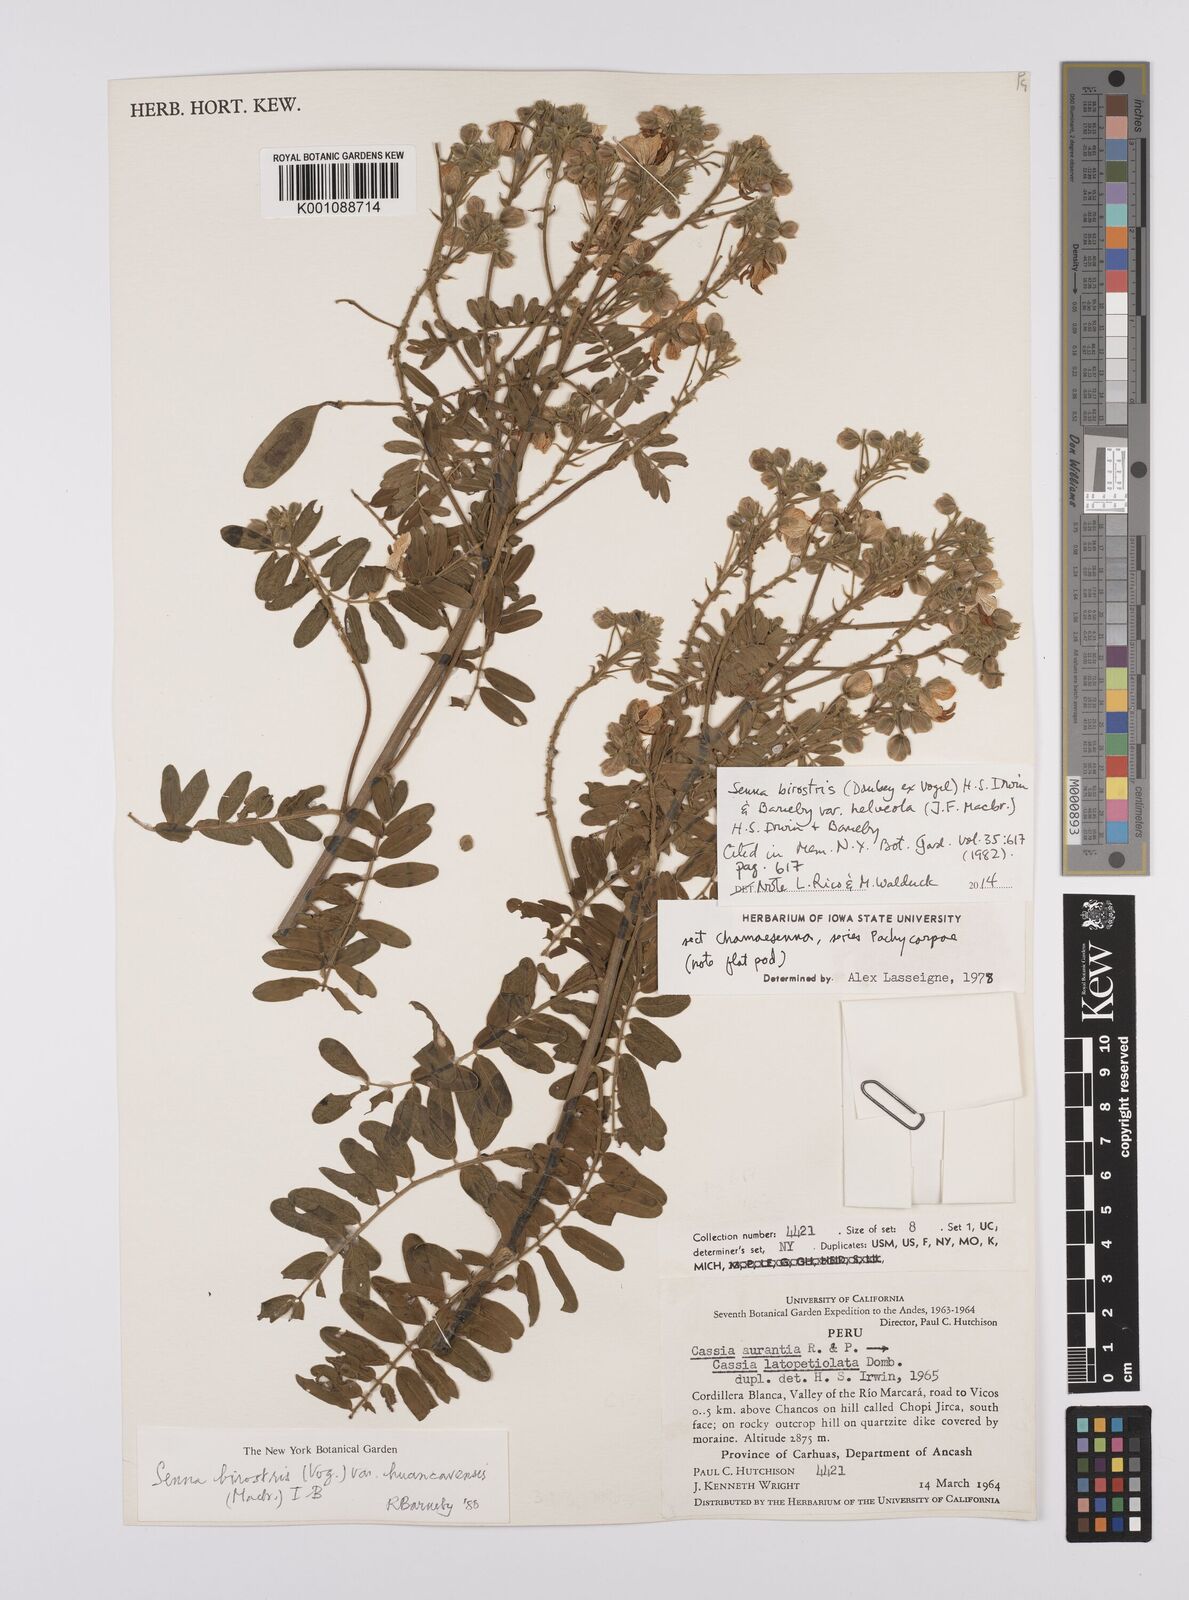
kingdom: Plantae
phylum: Tracheophyta
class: Magnoliopsida
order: Fabales
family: Fabaceae
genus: Senna
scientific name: Senna birostris
